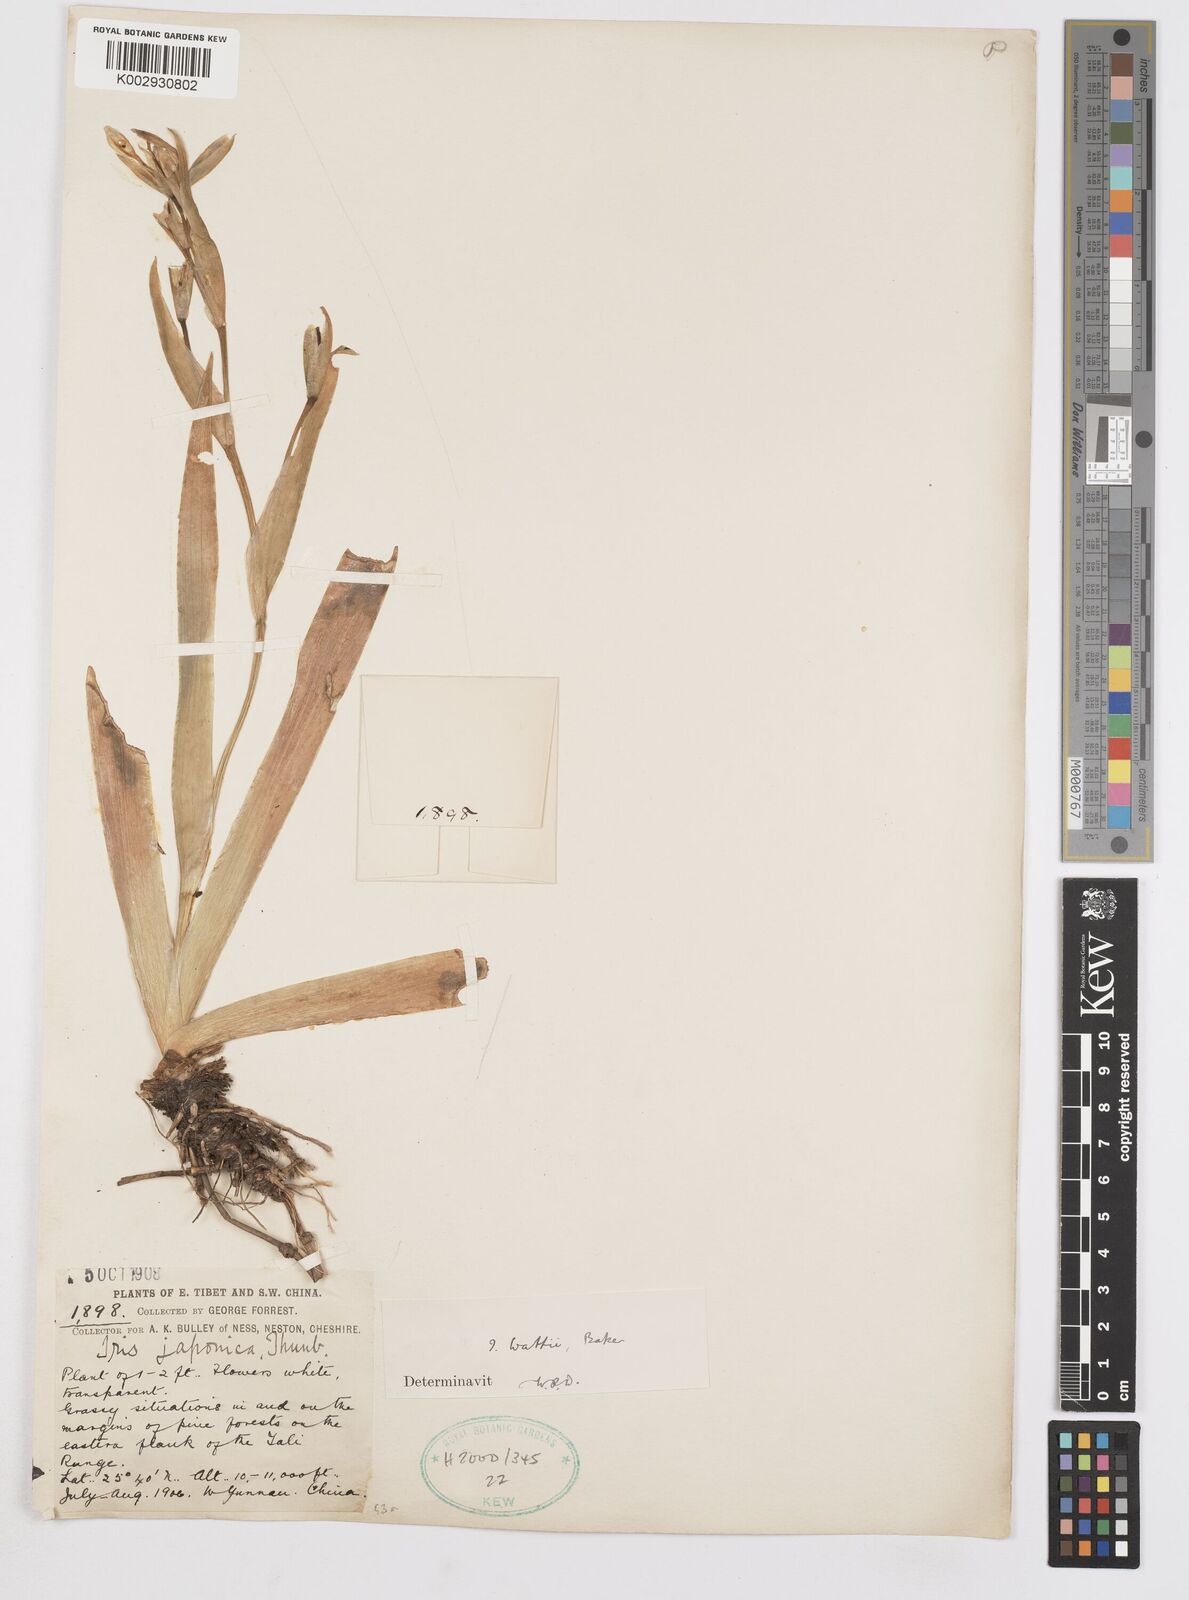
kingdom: Plantae
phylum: Tracheophyta
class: Liliopsida
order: Asparagales
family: Iridaceae
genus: Iris
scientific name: Iris wattii
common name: Fan-shape iris
